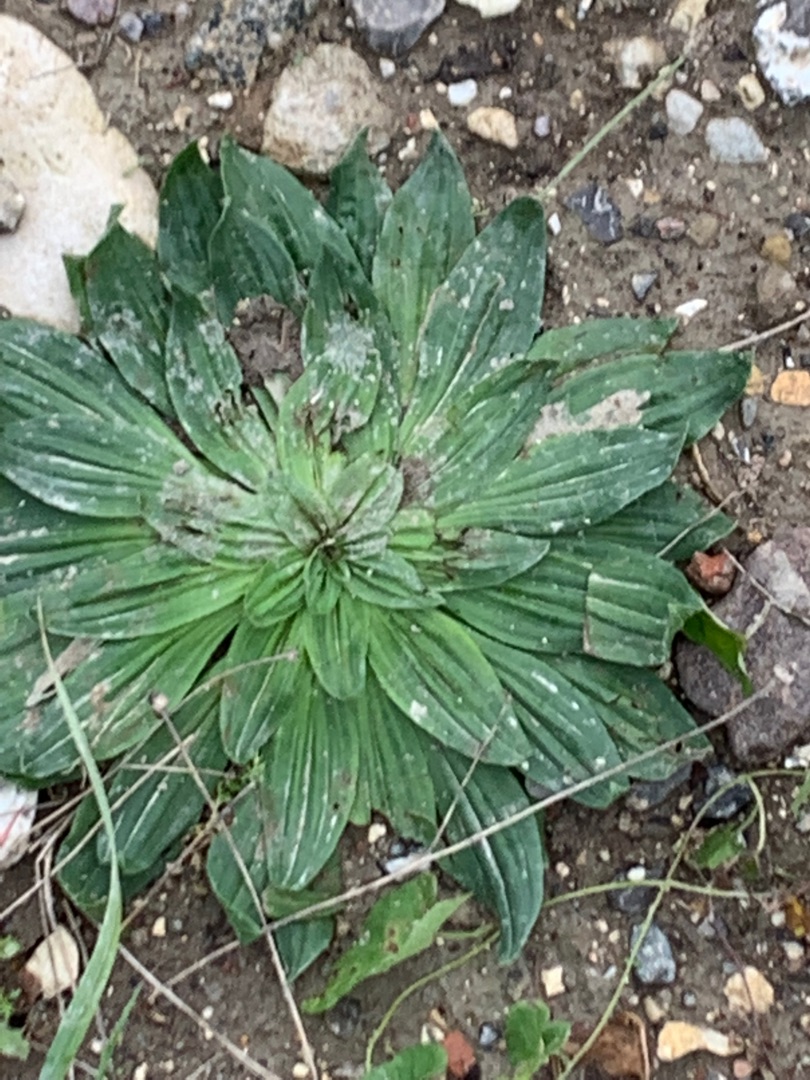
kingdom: Plantae
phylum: Tracheophyta
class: Magnoliopsida
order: Lamiales
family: Plantaginaceae
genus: Plantago
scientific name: Plantago lanceolata
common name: Lancet-vejbred
